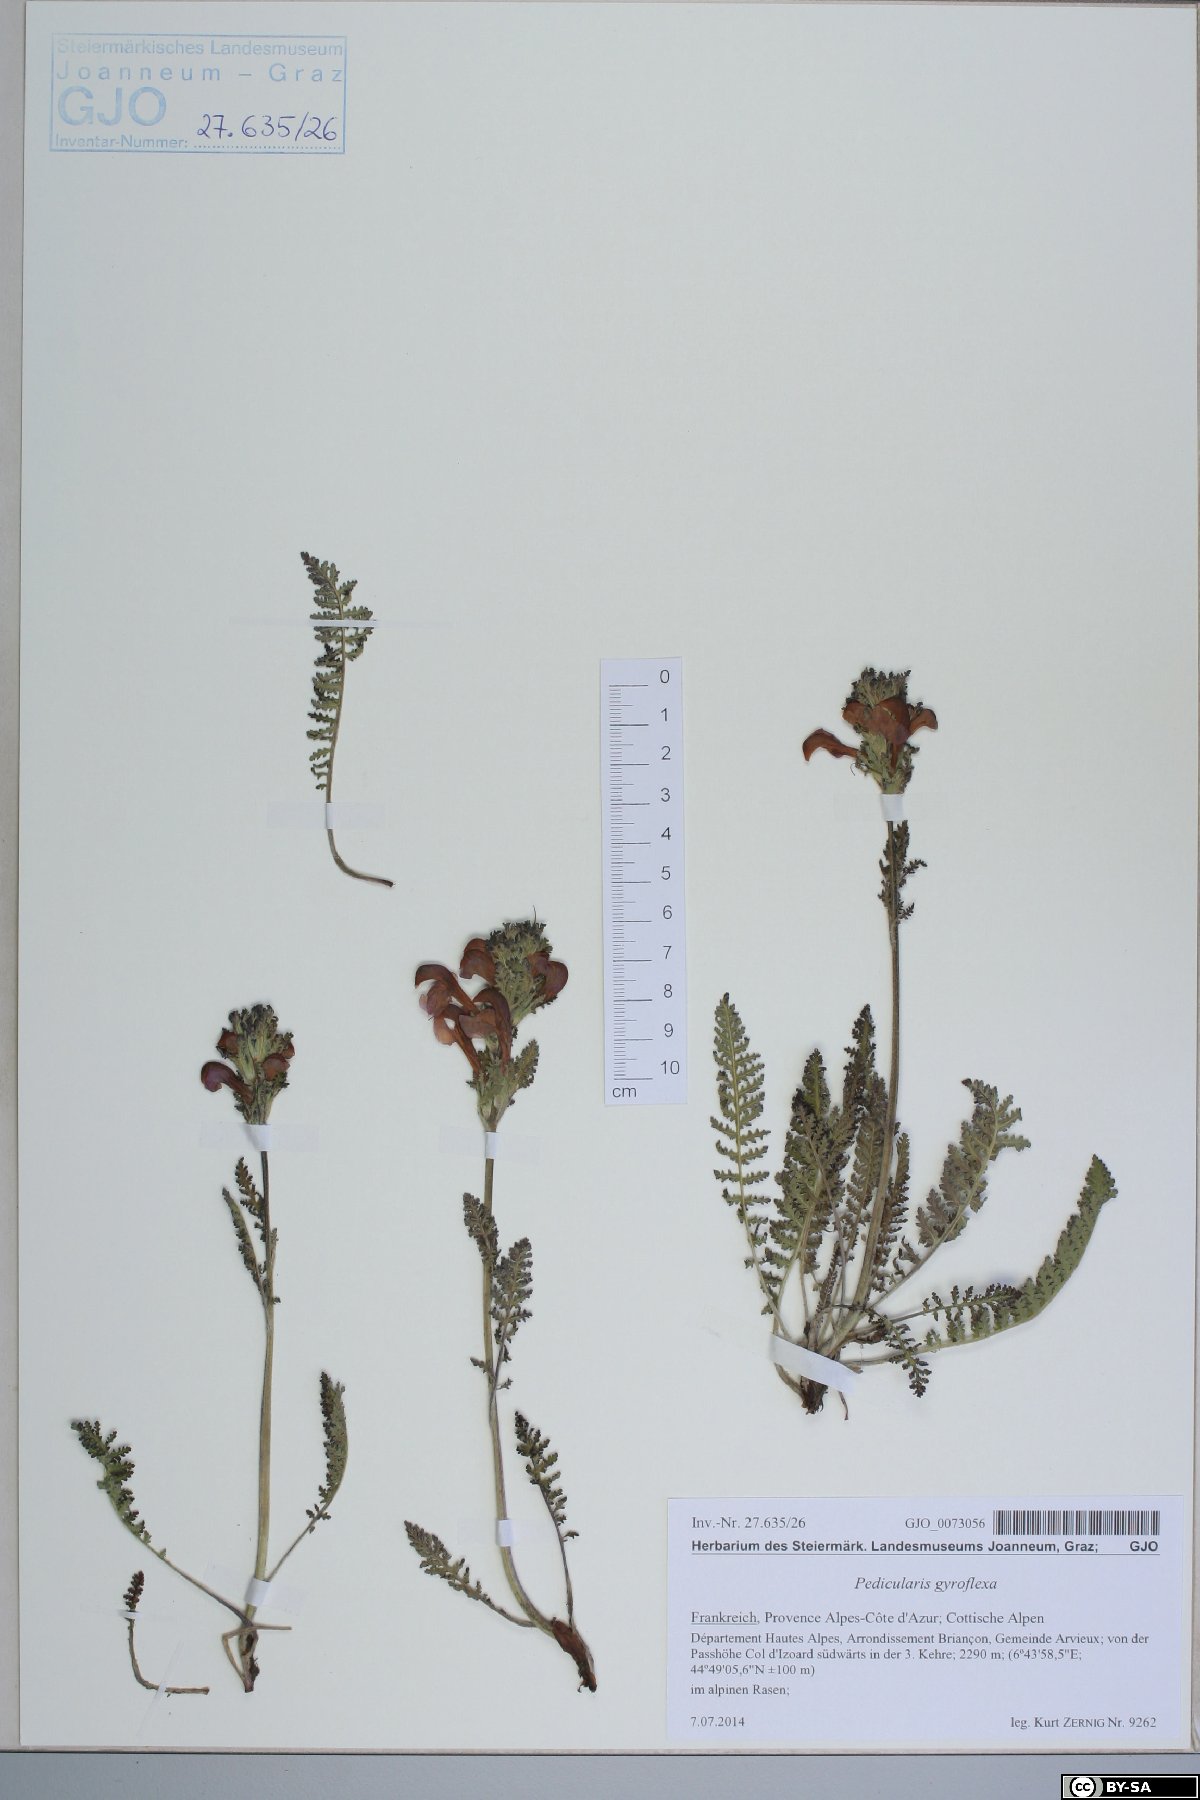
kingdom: Plantae
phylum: Tracheophyta
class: Magnoliopsida
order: Lamiales
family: Orobanchaceae
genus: Pedicularis
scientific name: Pedicularis gyroflexa
